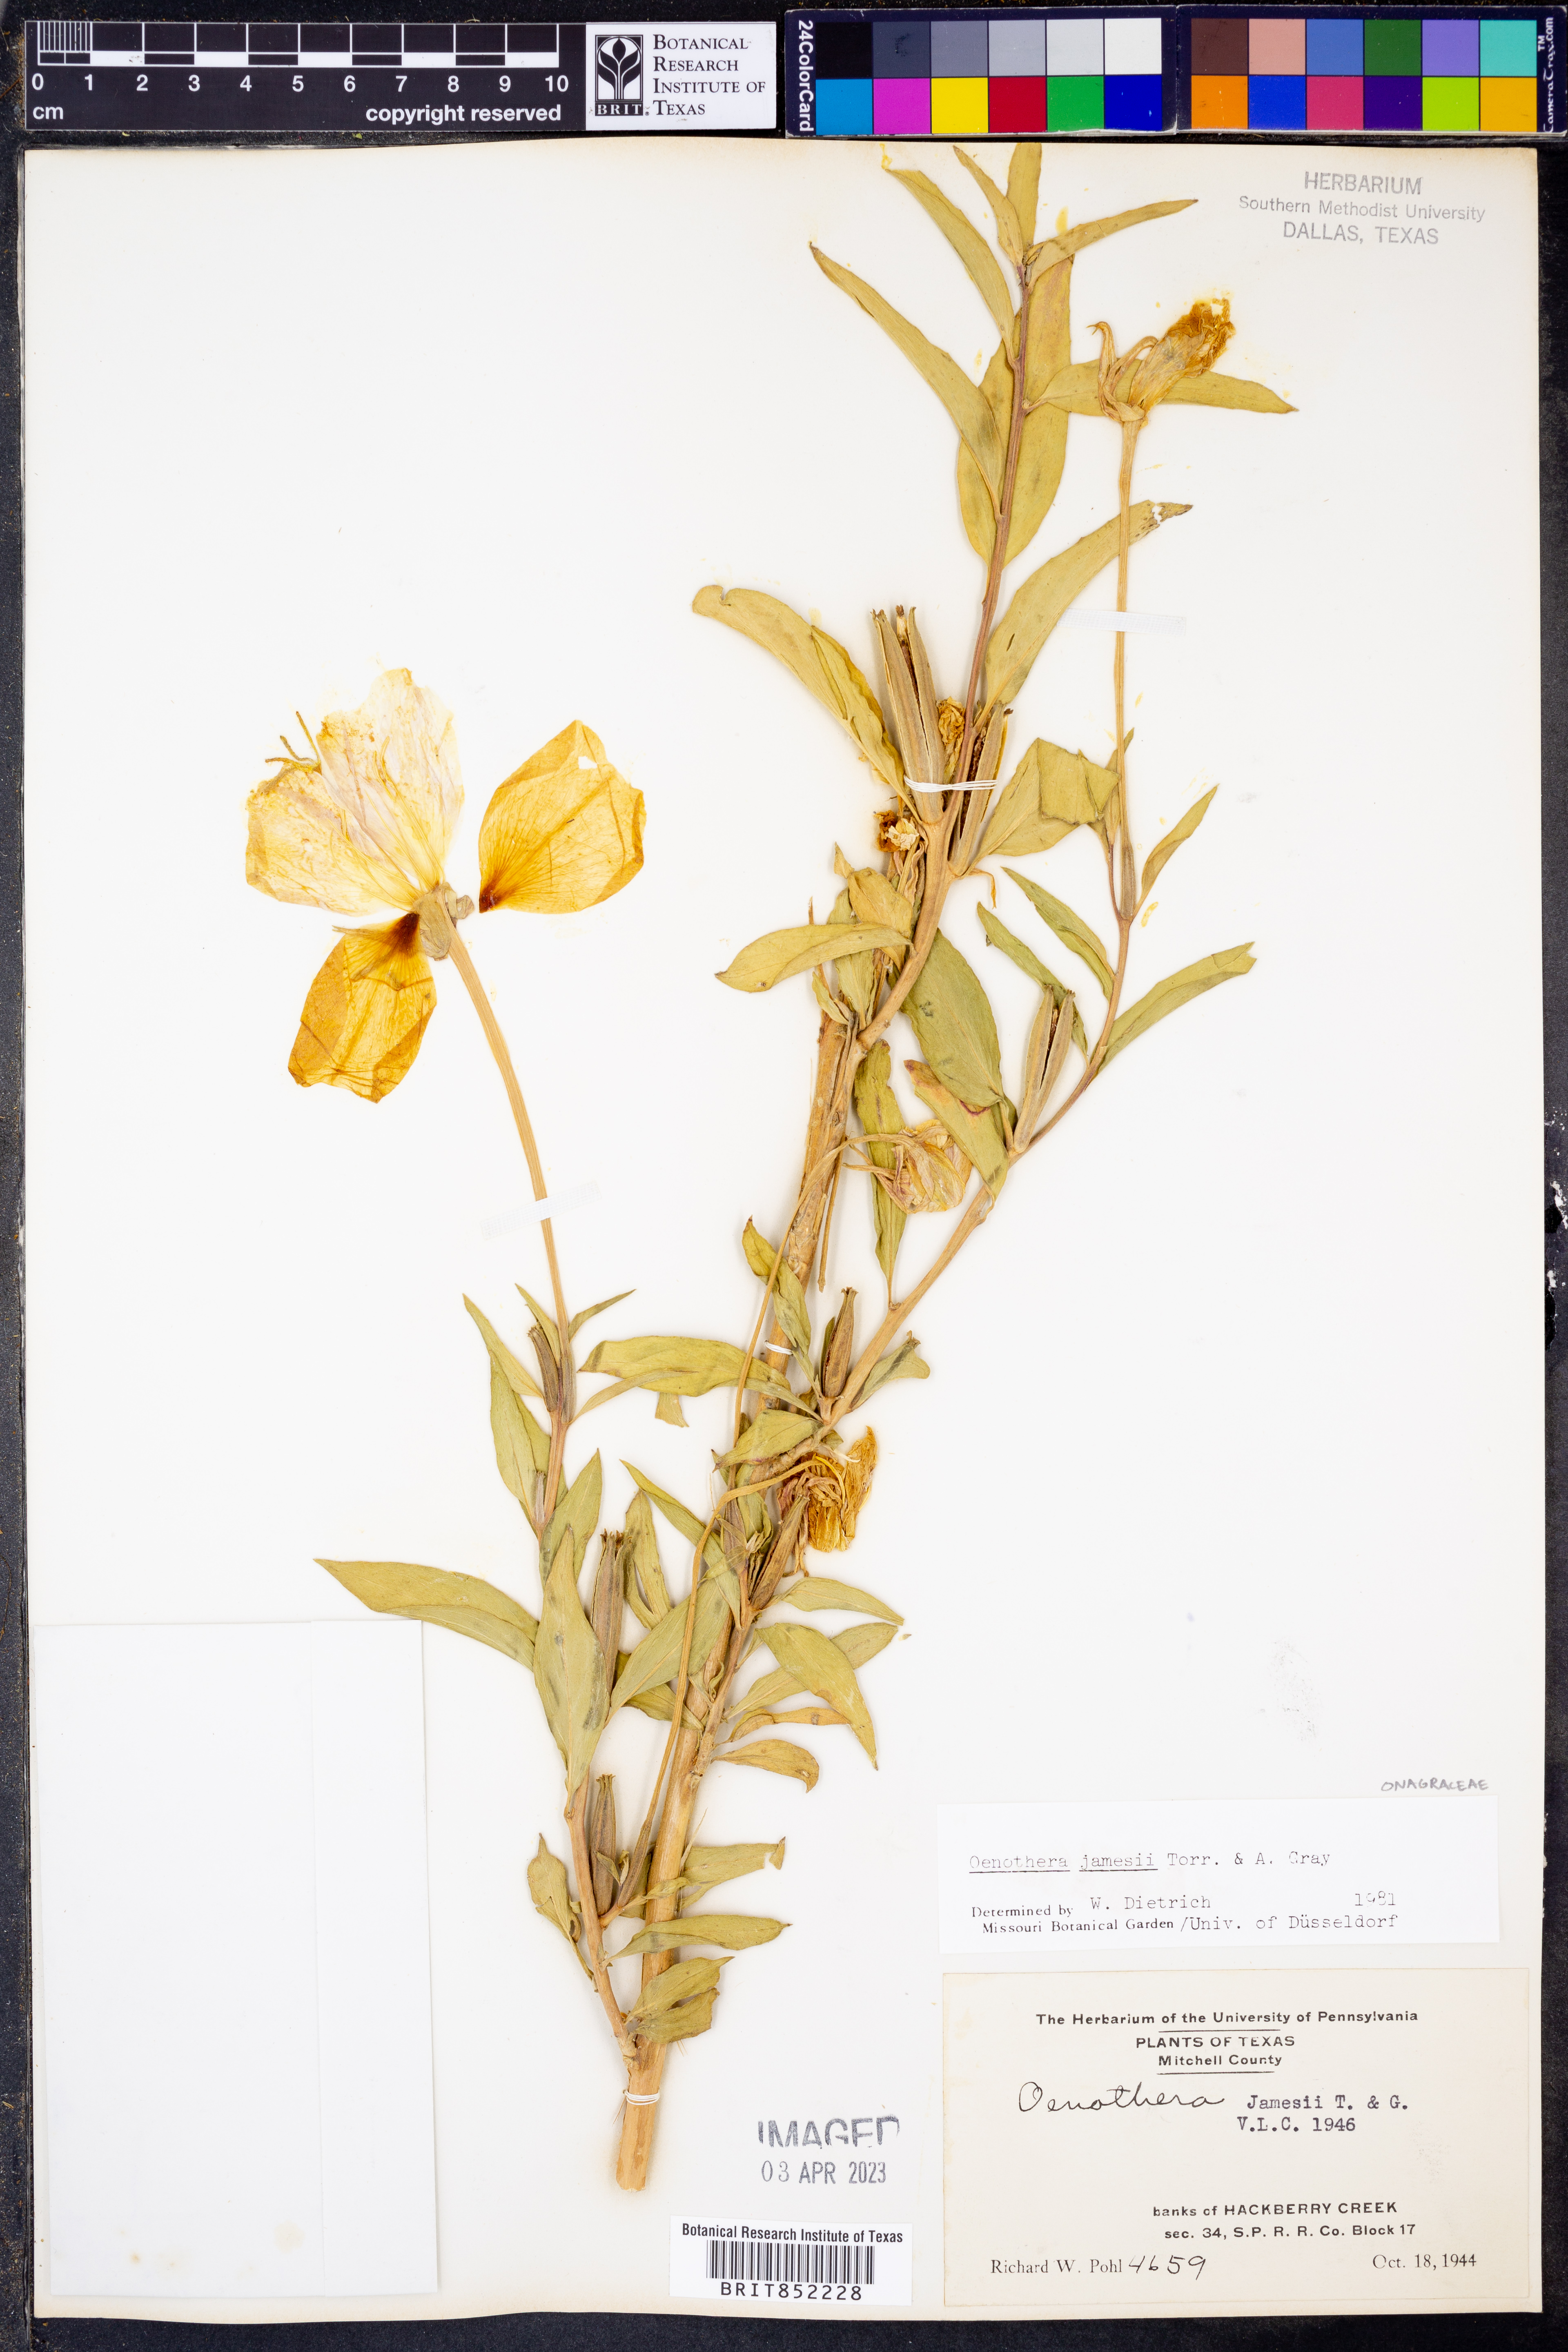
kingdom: Plantae
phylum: Tracheophyta
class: Magnoliopsida
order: Myrtales
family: Onagraceae
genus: Oenothera
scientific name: Oenothera jamesii
